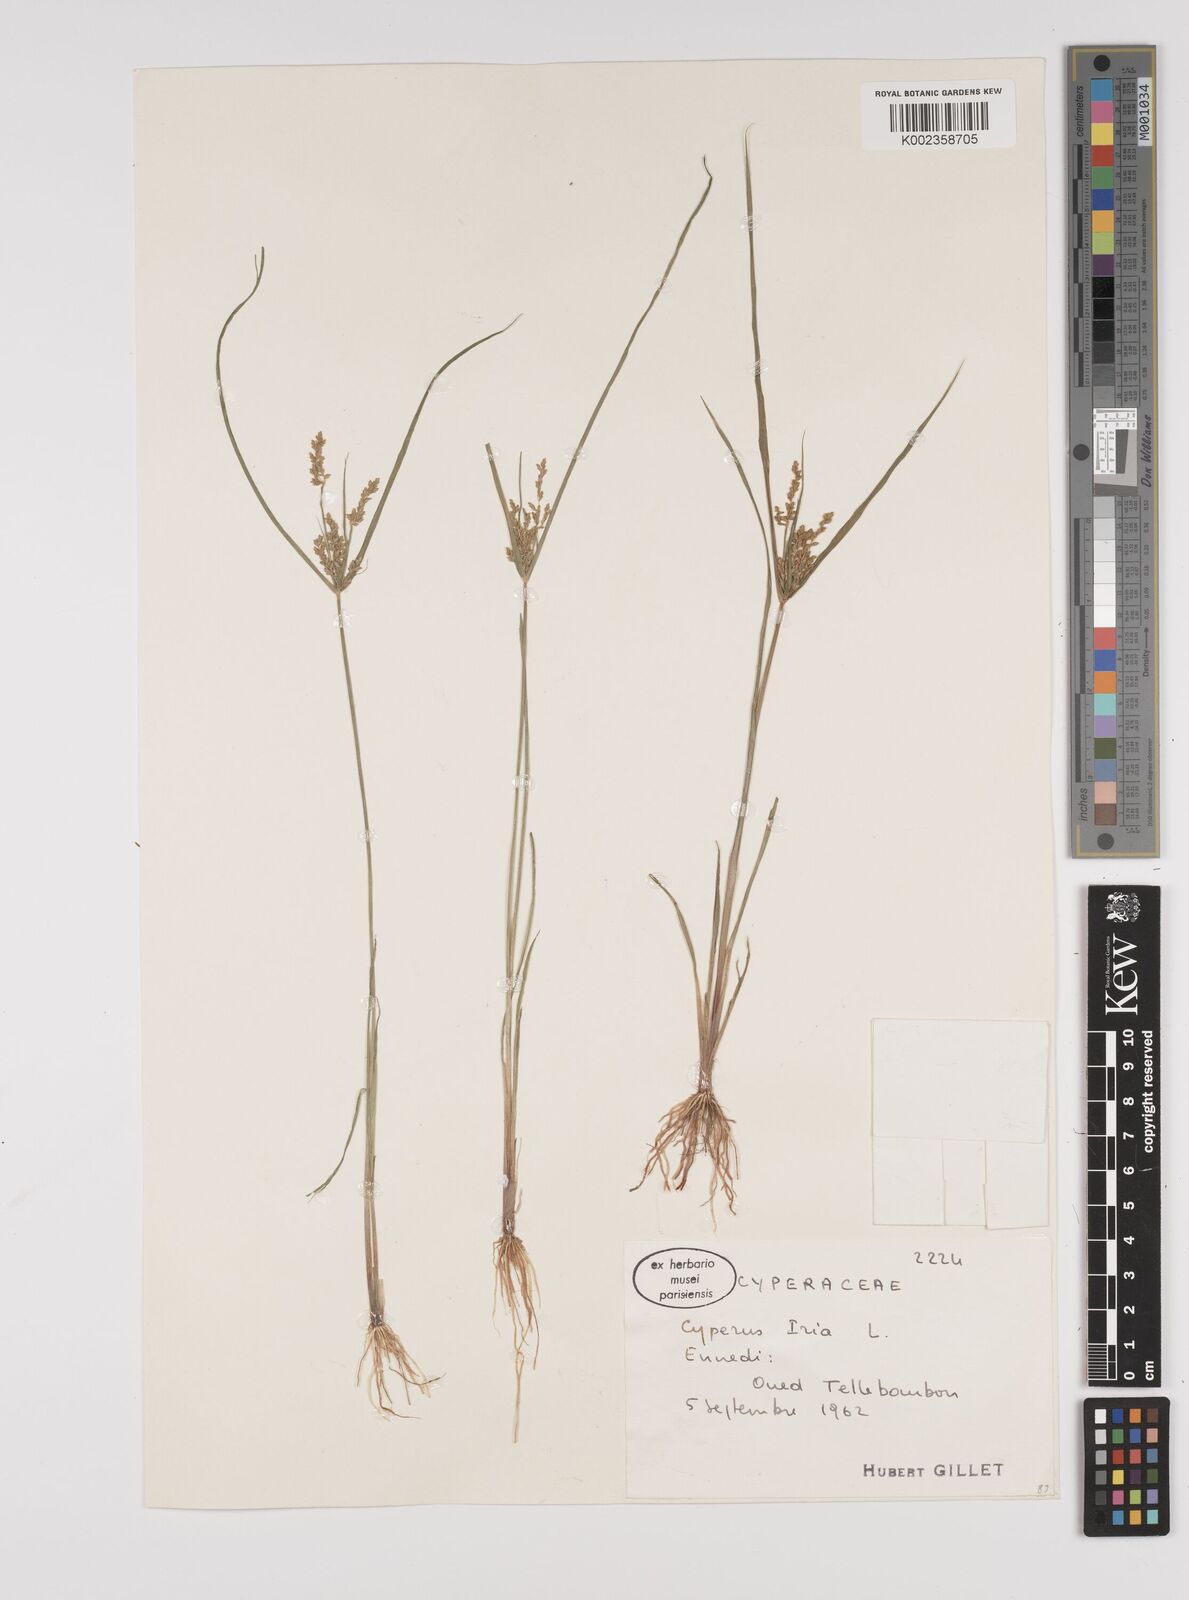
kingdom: Plantae
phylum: Tracheophyta
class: Liliopsida
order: Poales
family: Cyperaceae
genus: Cyperus
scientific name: Cyperus iria
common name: Ricefield flatsedge
